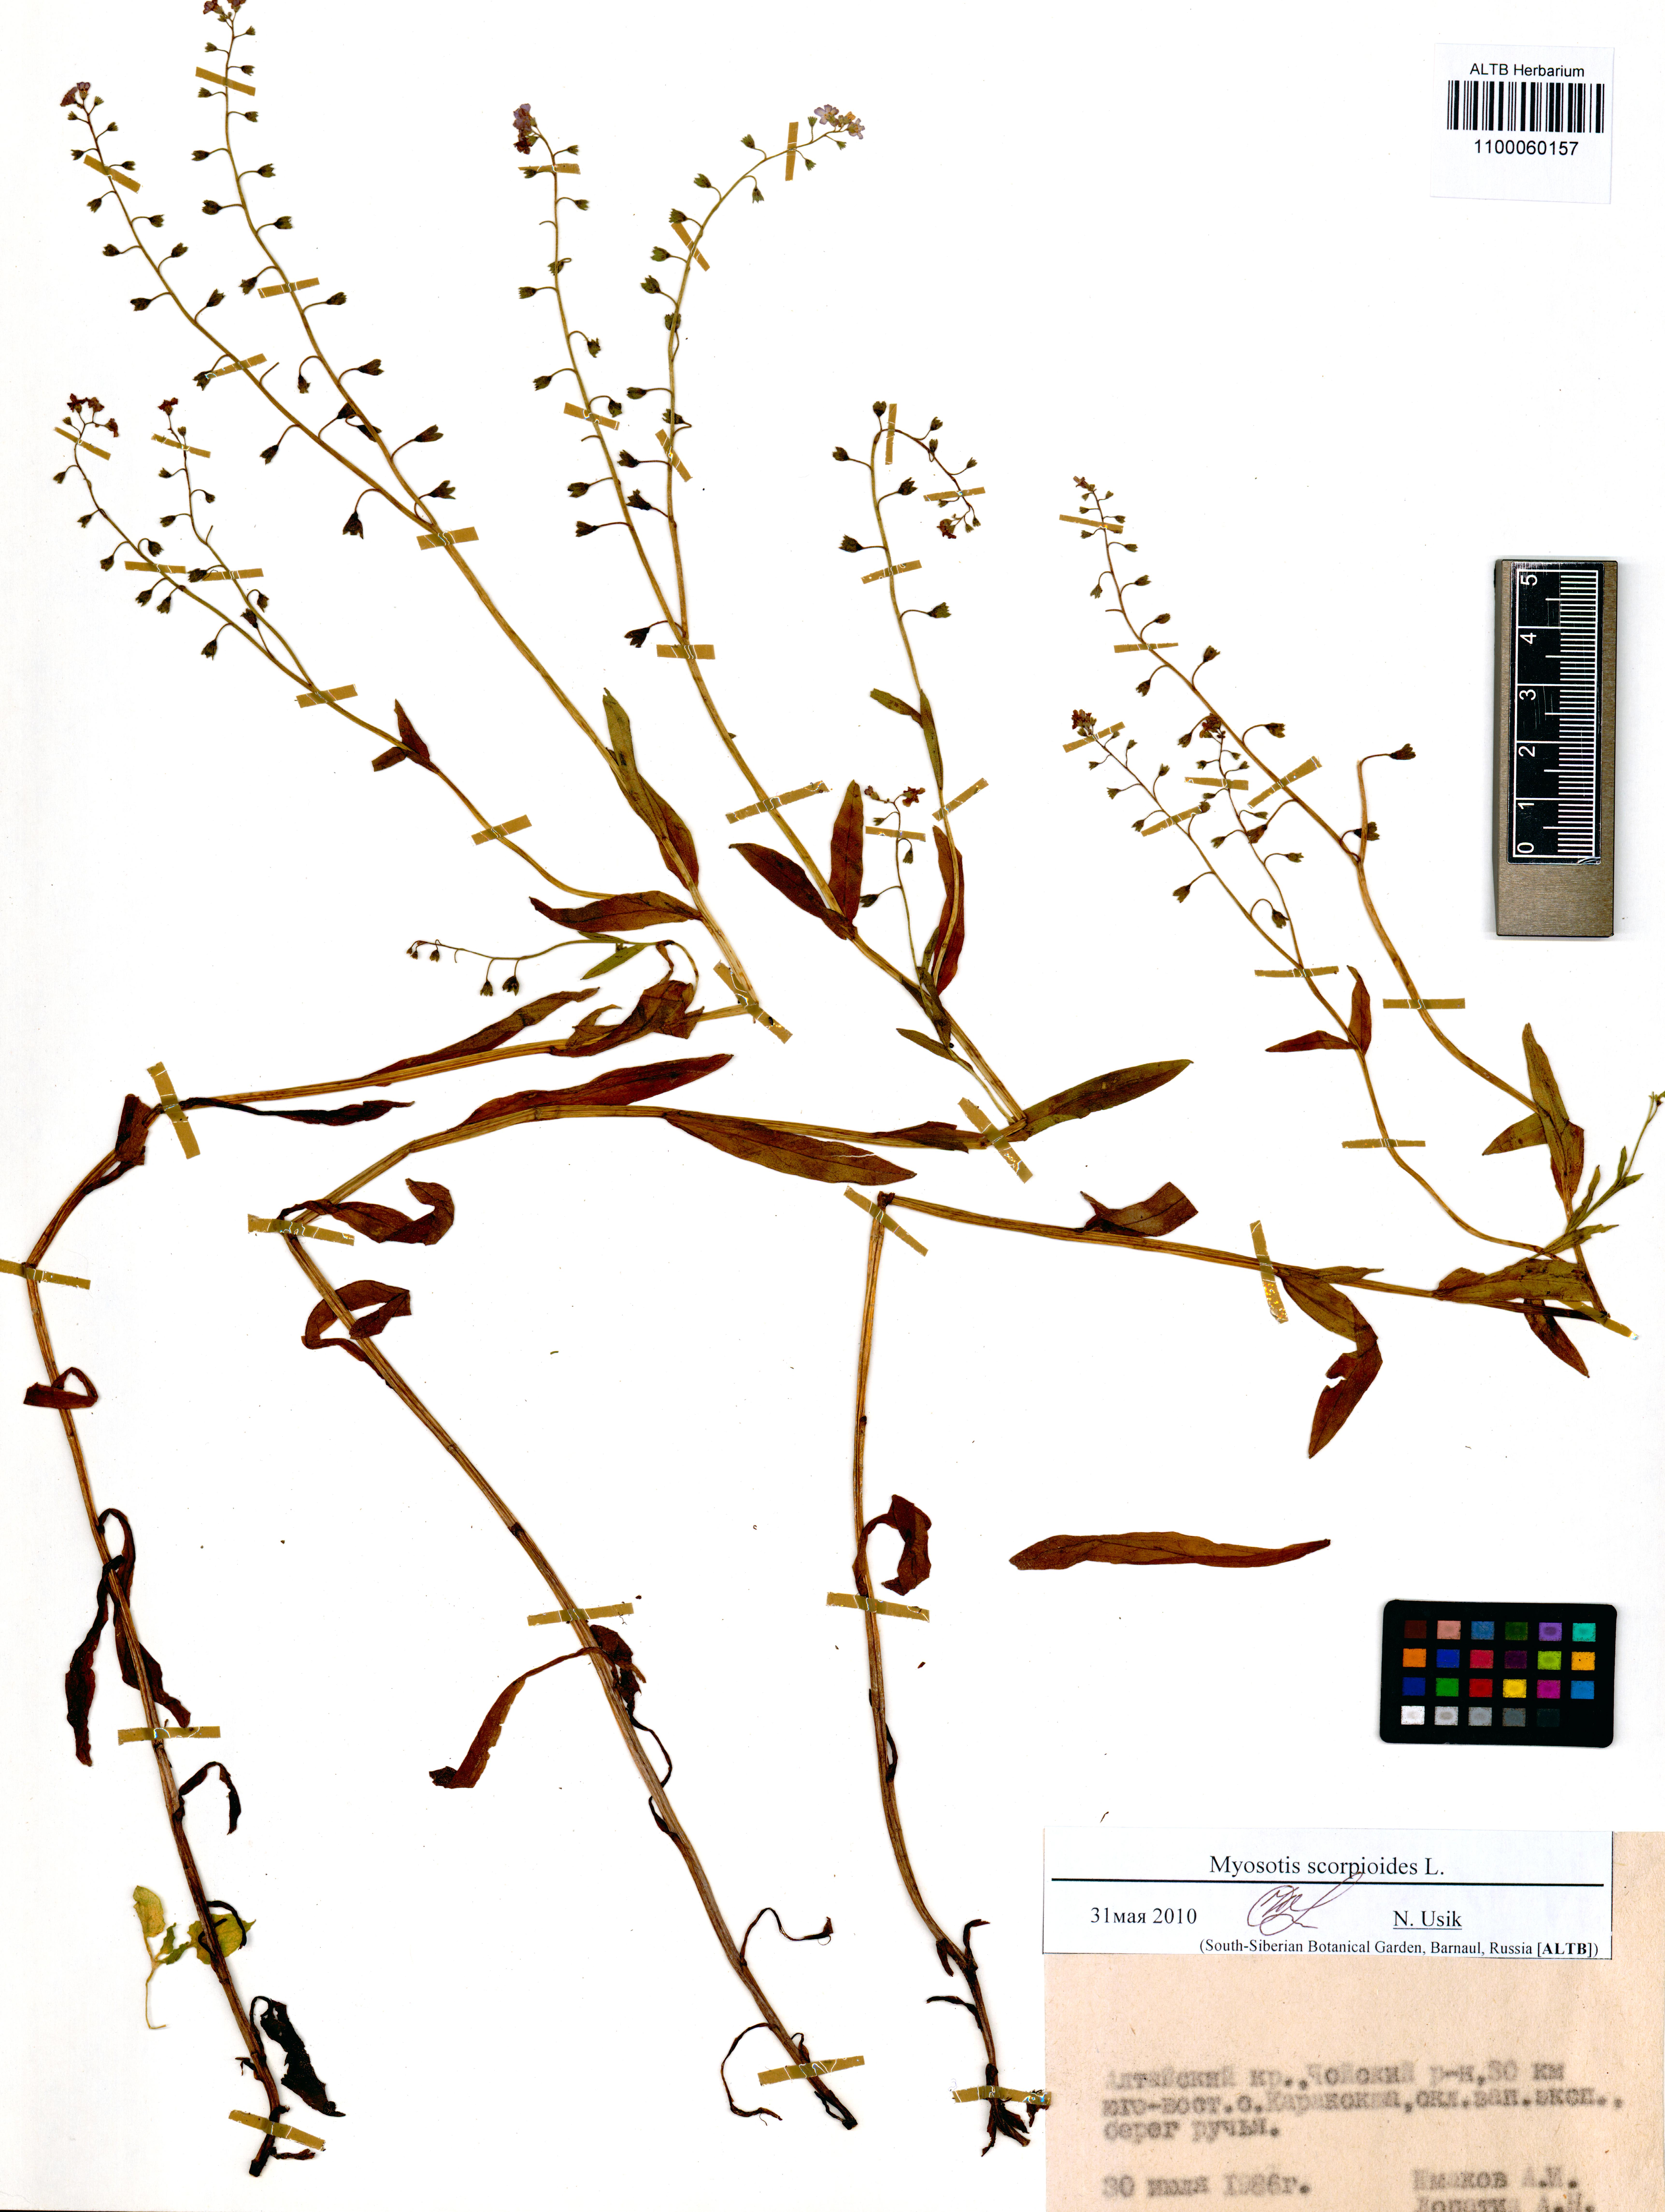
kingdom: Plantae
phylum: Tracheophyta
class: Magnoliopsida
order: Boraginales
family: Boraginaceae
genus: Myosotis
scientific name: Myosotis scorpioides
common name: Water forget-me-not
